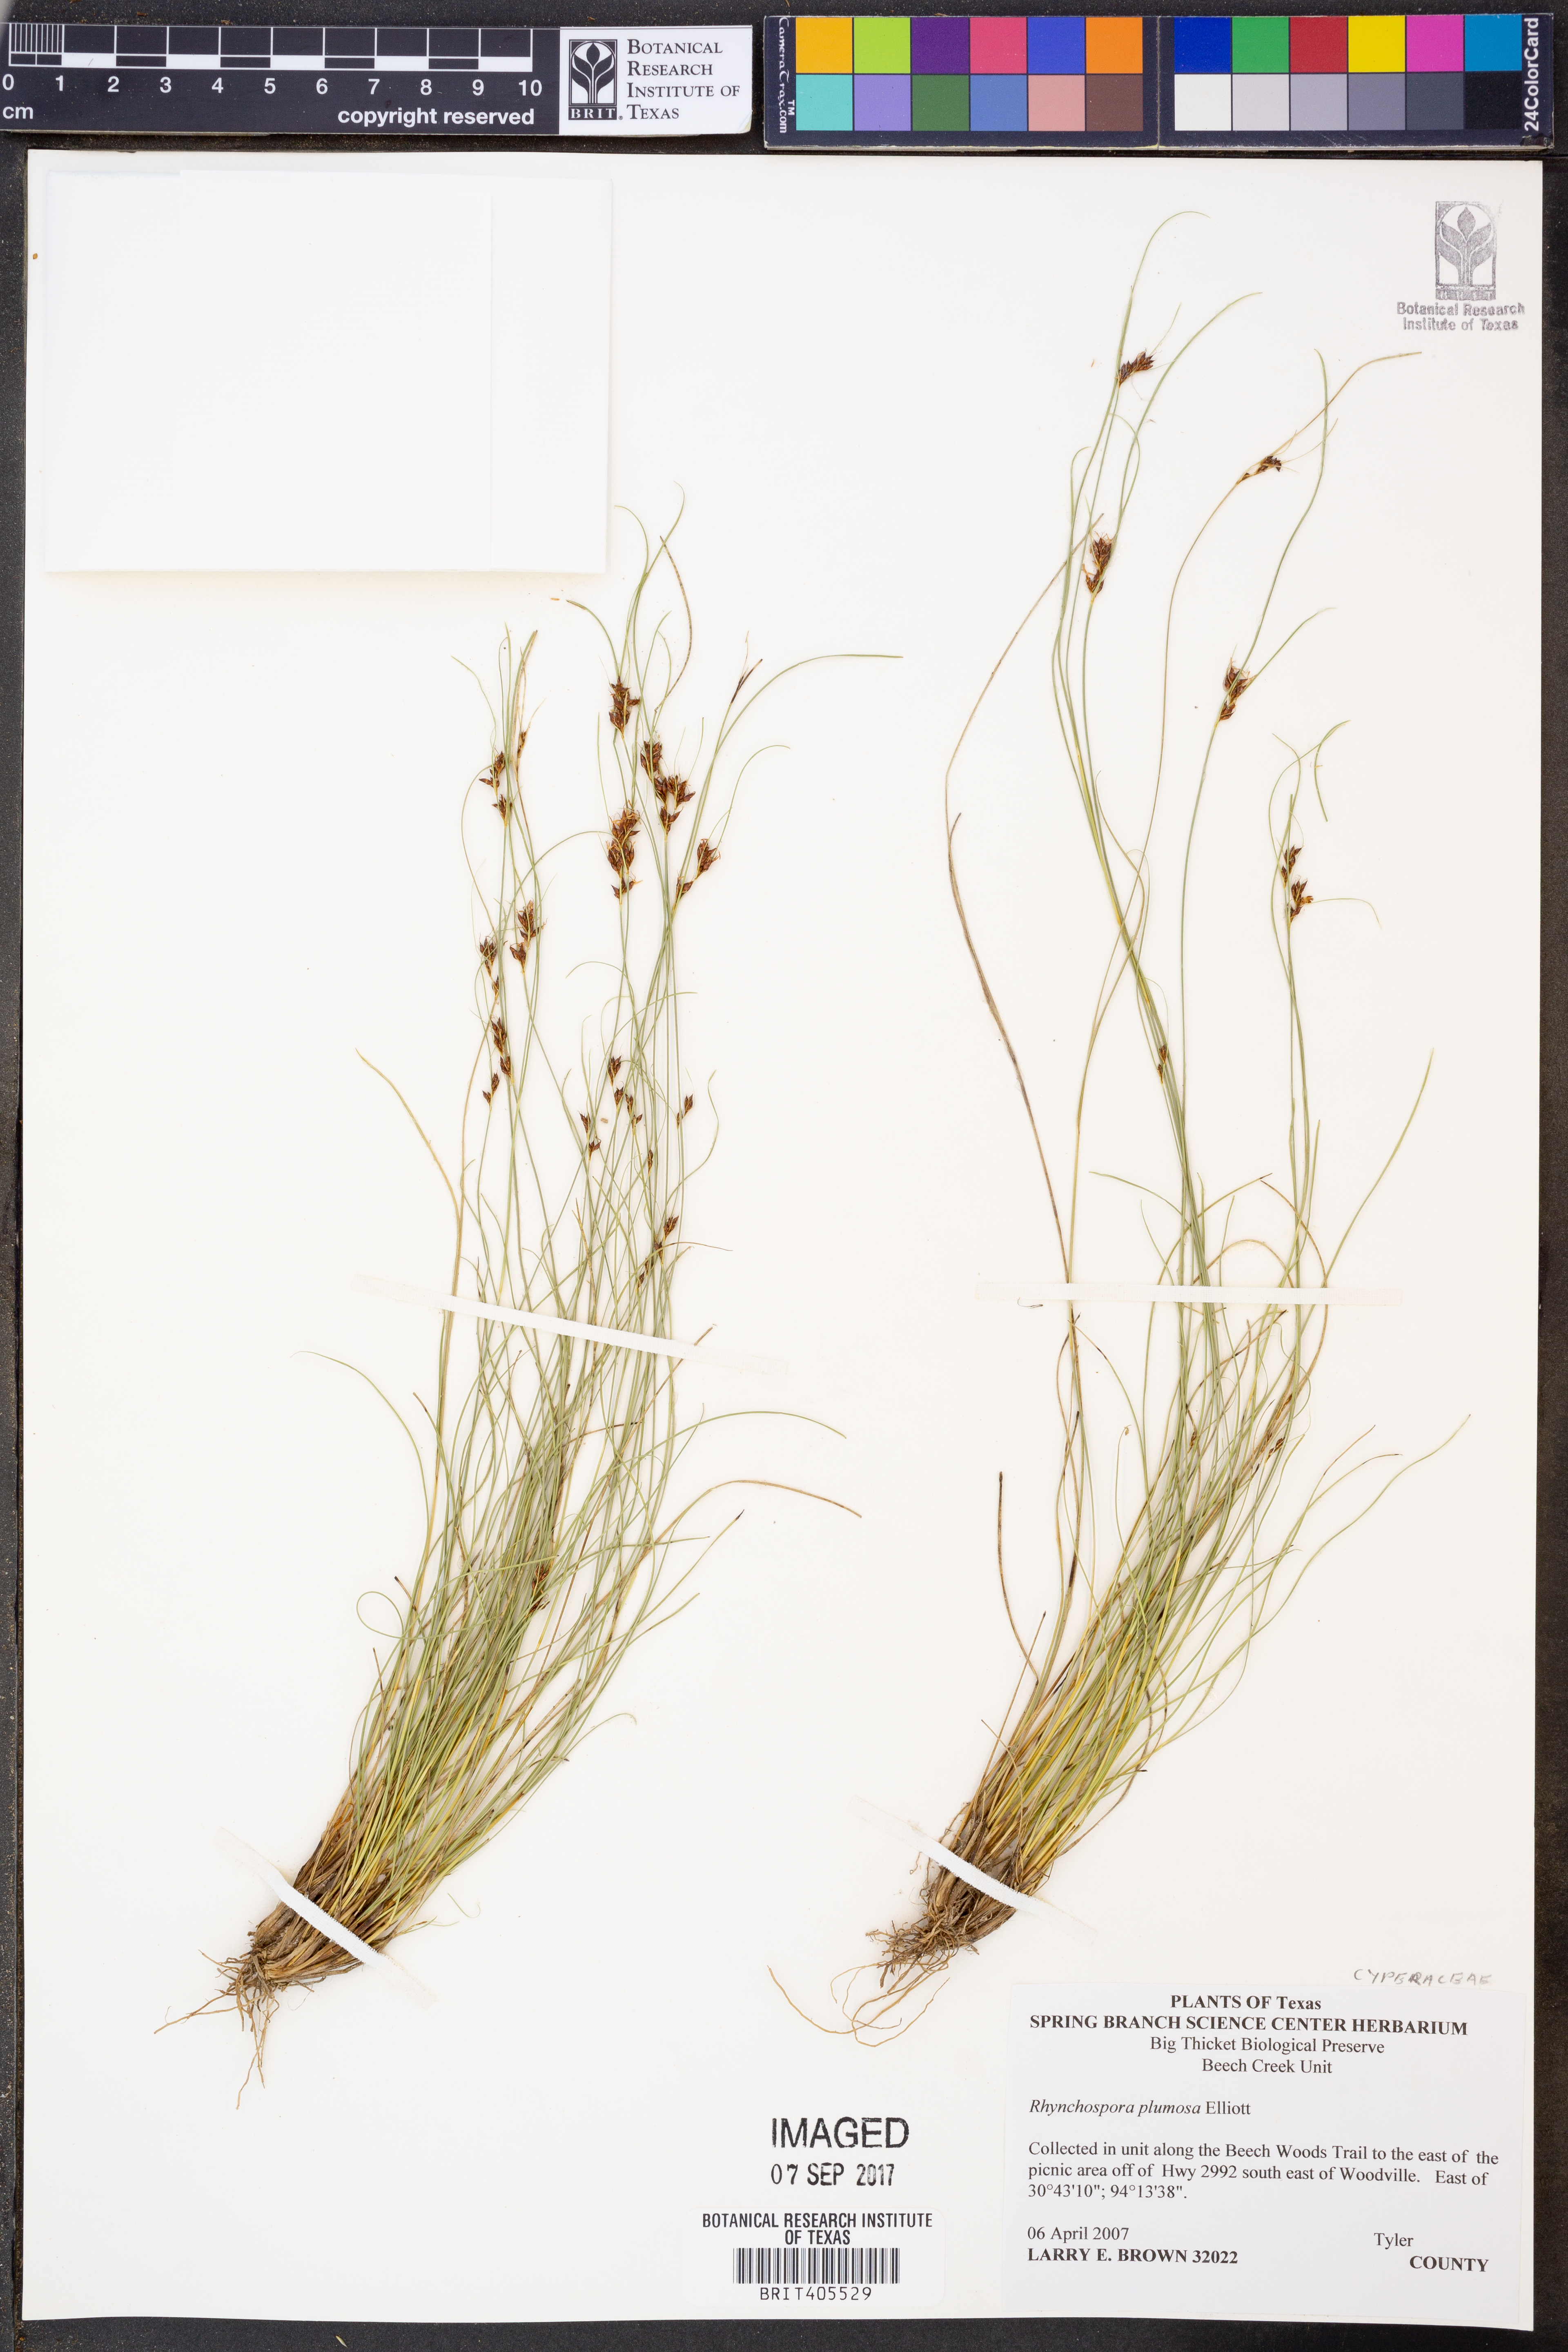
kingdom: Plantae
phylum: Tracheophyta
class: Liliopsida
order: Poales
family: Cyperaceae
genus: Rhynchospora
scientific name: Rhynchospora plumosa
